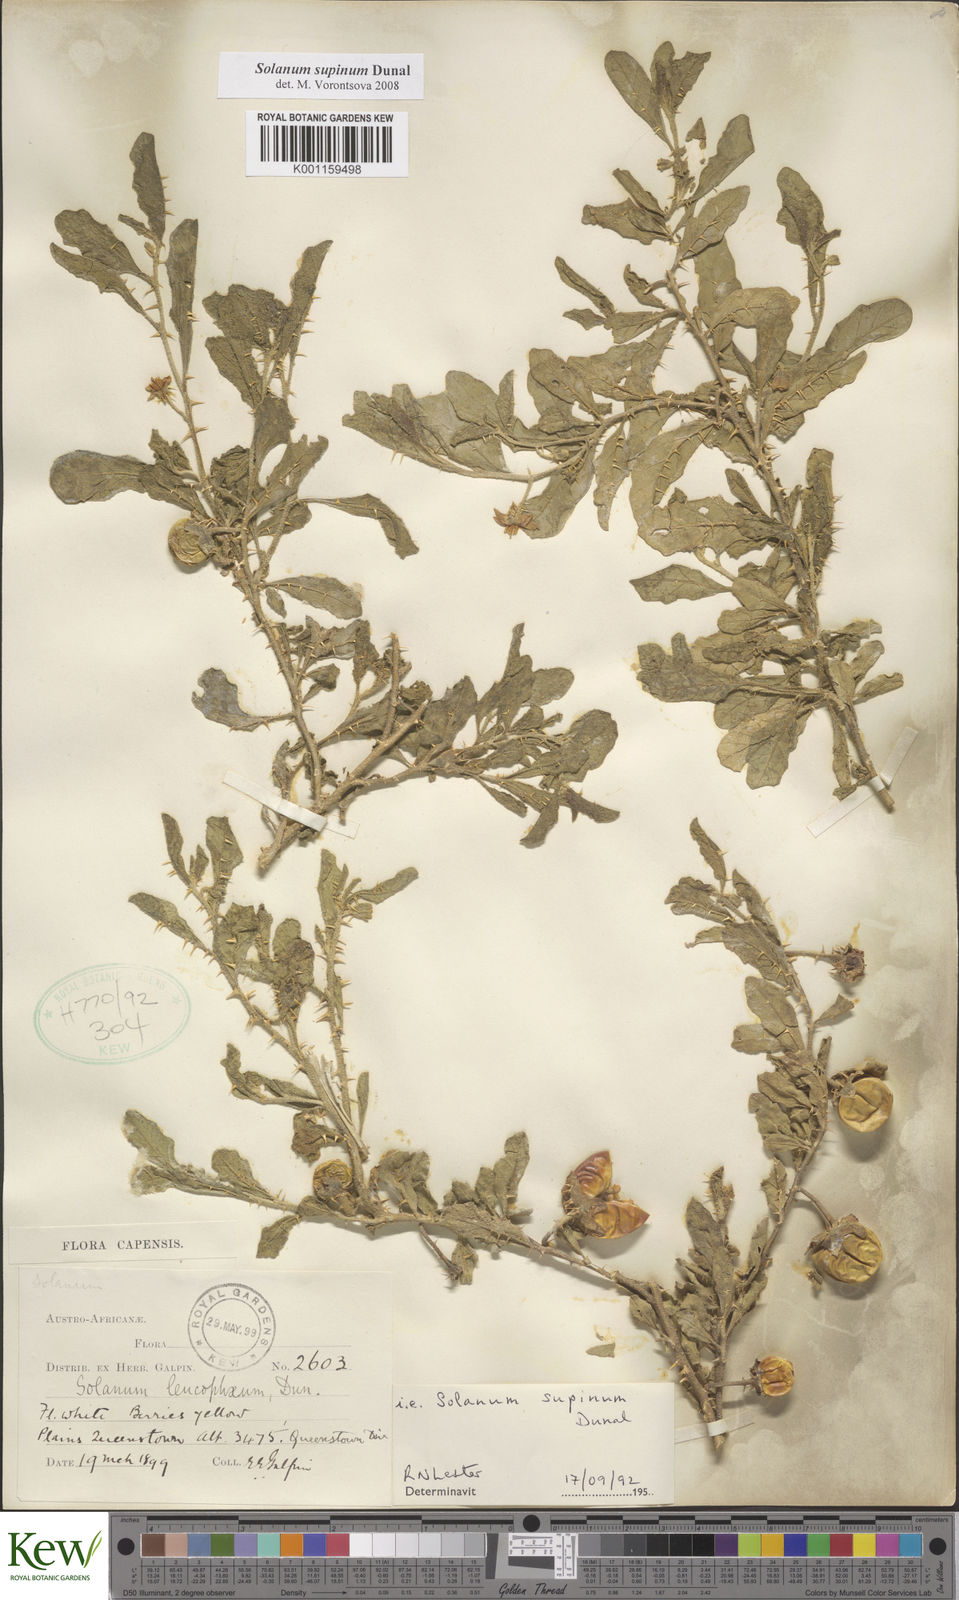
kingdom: Plantae
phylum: Tracheophyta
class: Magnoliopsida
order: Solanales
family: Solanaceae
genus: Solanum
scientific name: Solanum supinum
